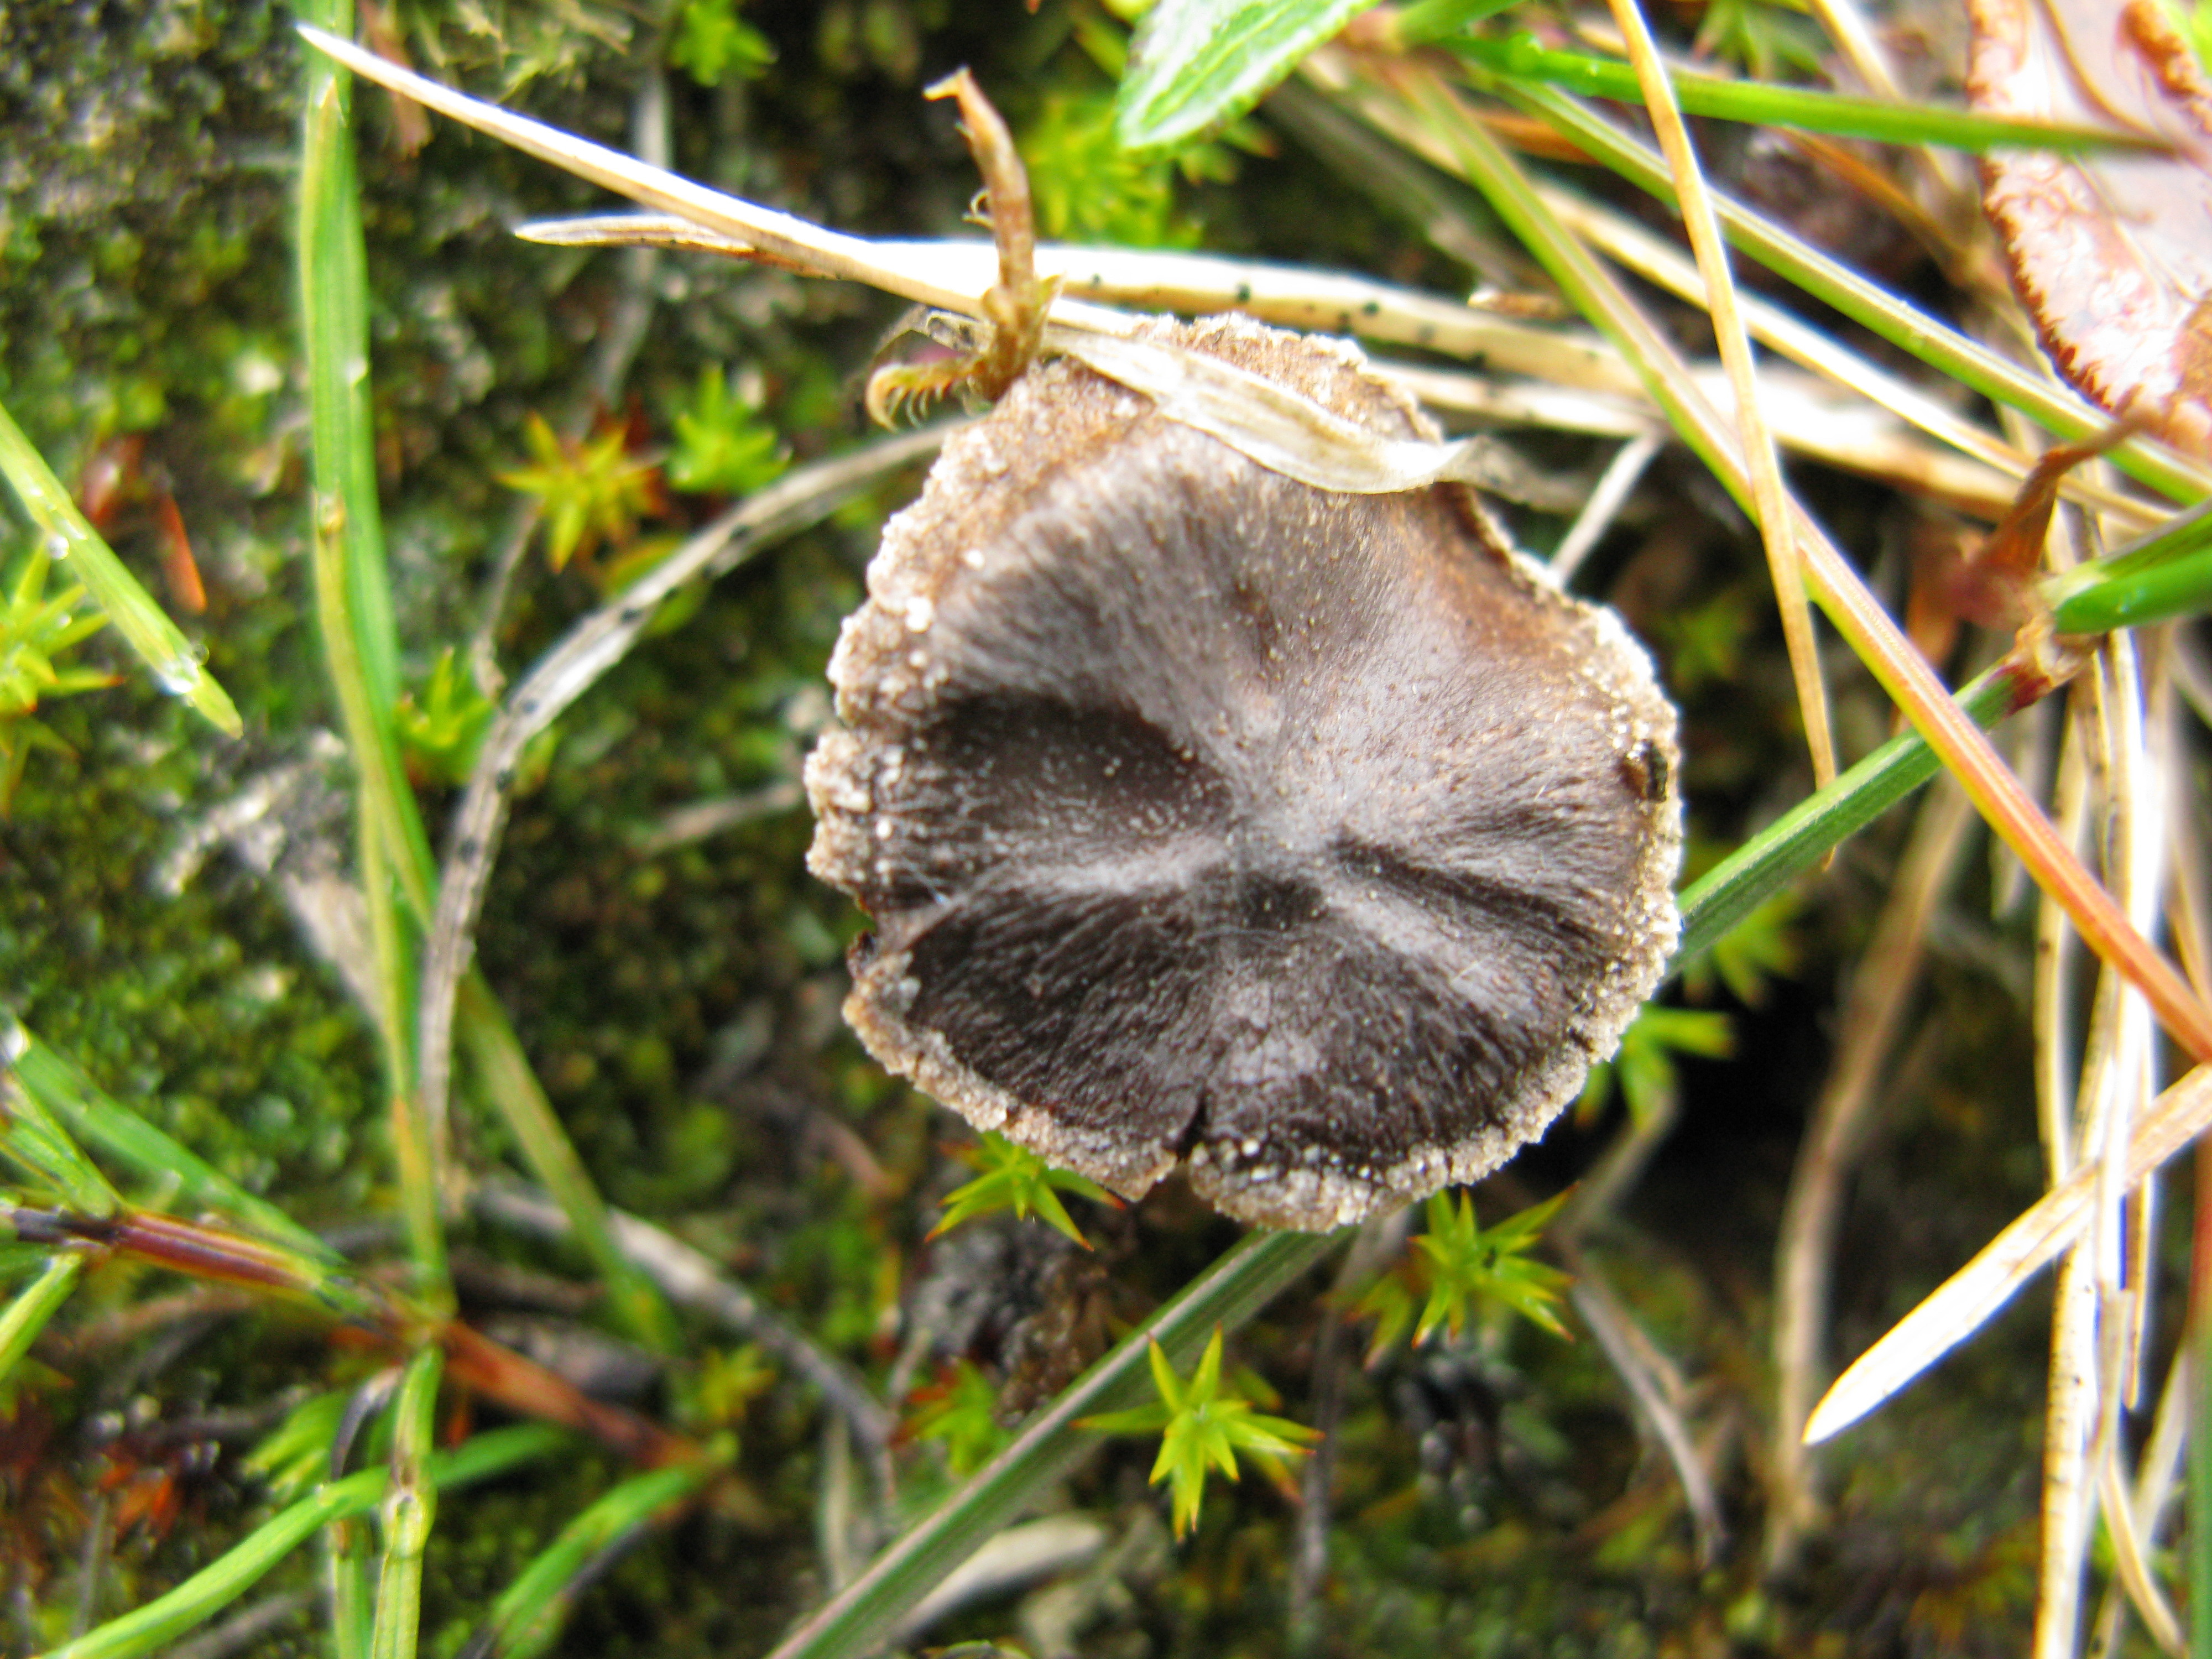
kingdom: Fungi
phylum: Basidiomycota
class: Agaricomycetes
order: Agaricales
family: Cortinariaceae
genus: Cortinarius
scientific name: Cortinarius casimirii
